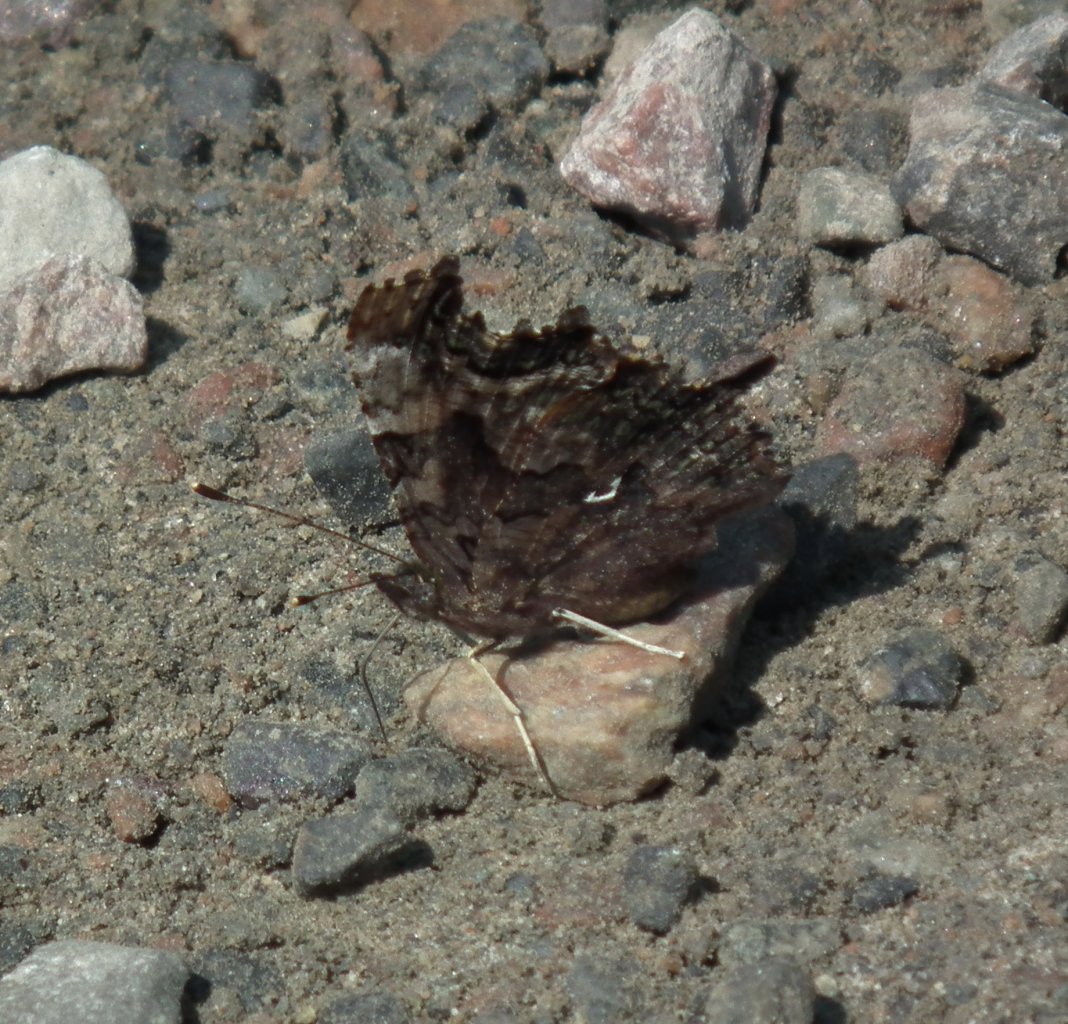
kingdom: Animalia
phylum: Arthropoda
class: Insecta
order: Lepidoptera
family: Nymphalidae
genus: Polygonia
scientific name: Polygonia faunus
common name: Green Comma
